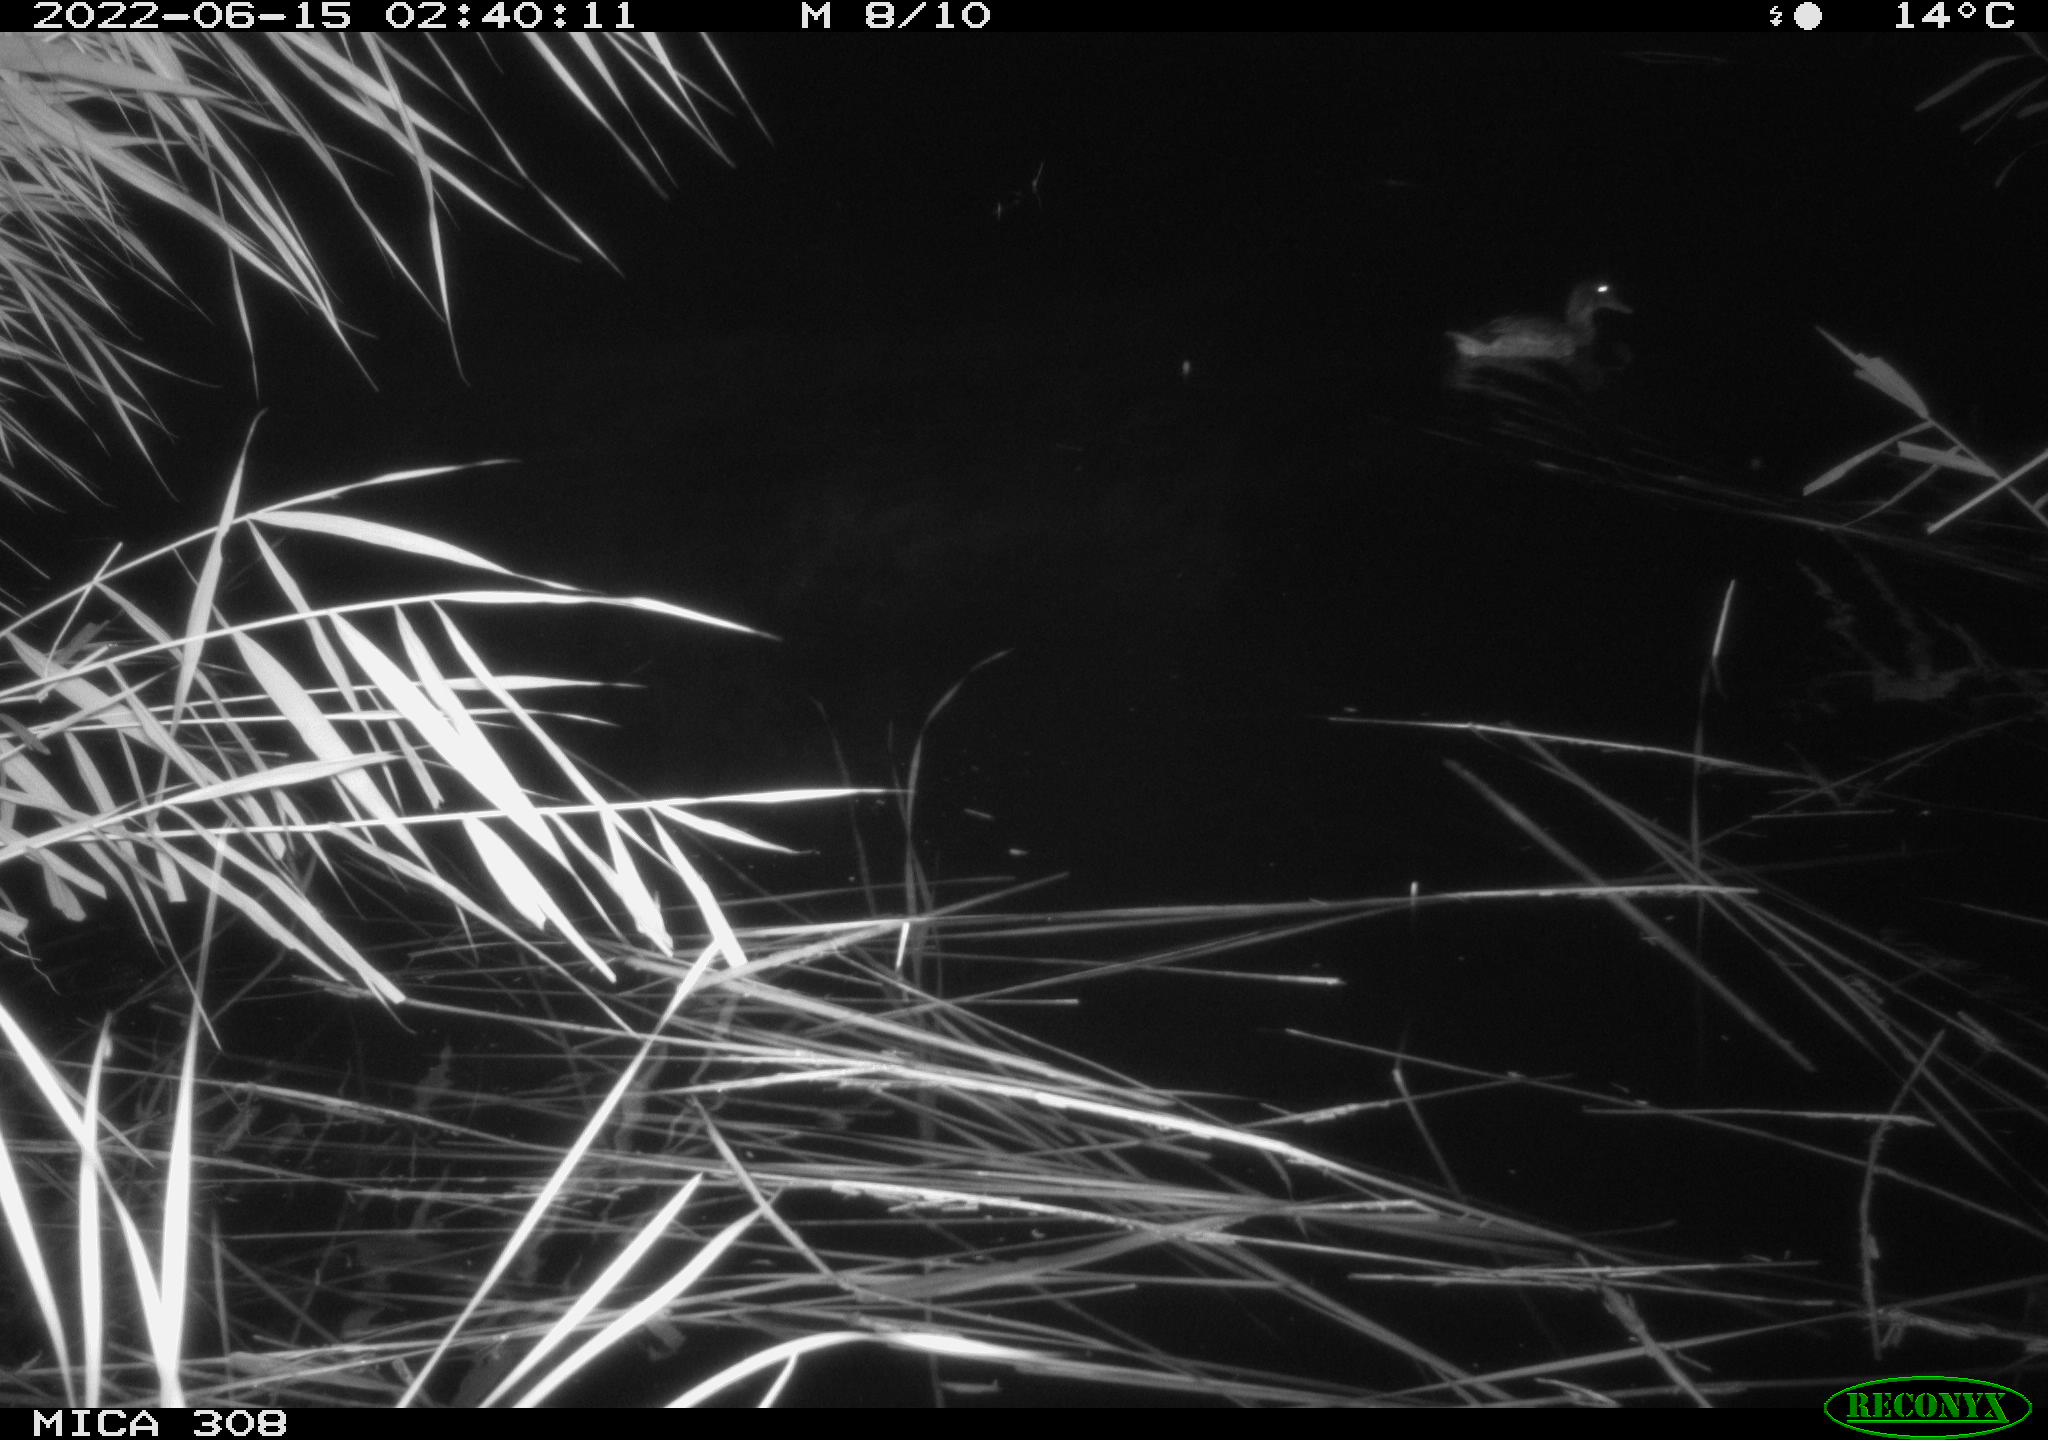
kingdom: Animalia
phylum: Chordata
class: Aves
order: Anseriformes
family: Anatidae
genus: Mareca
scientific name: Mareca strepera
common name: Gadwall
